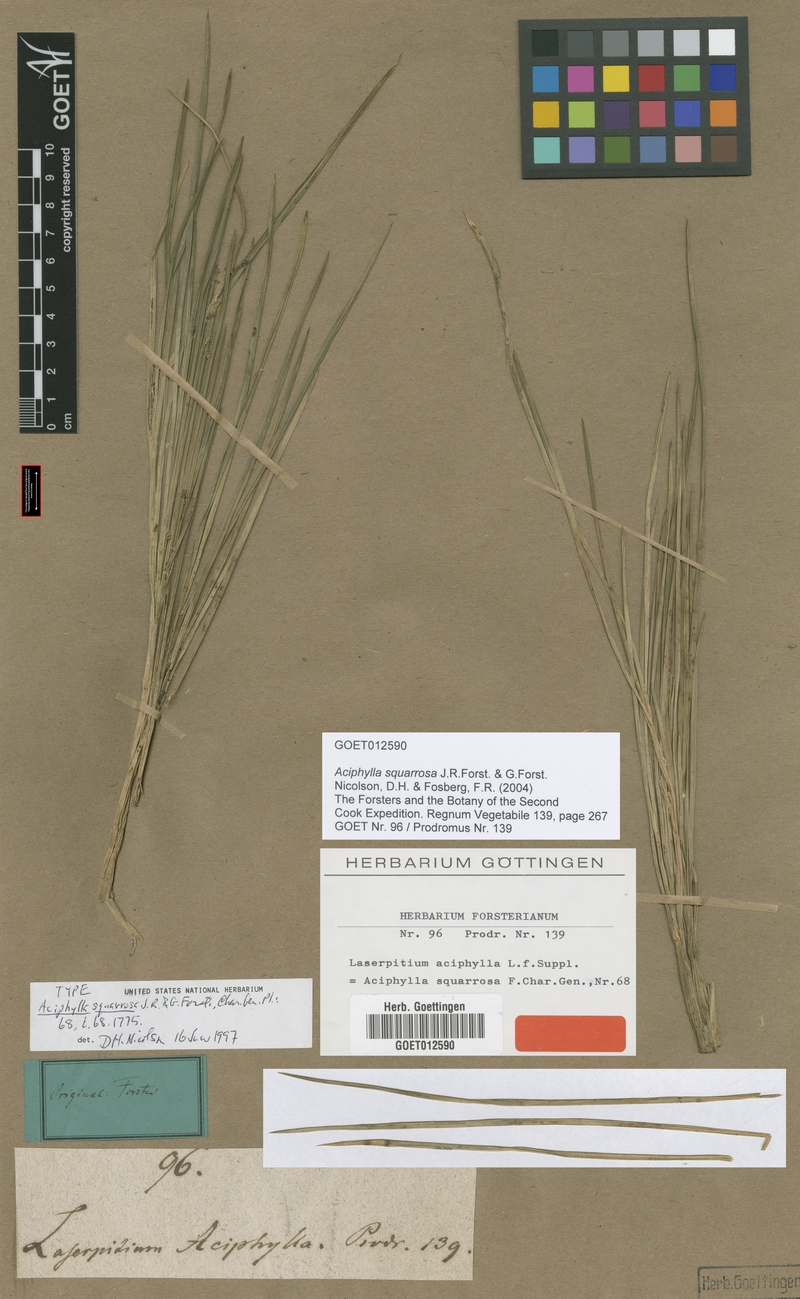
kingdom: Plantae
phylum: Tracheophyta
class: Magnoliopsida
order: Apiales
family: Apiaceae
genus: Aciphylla
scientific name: Aciphylla squarrosa
